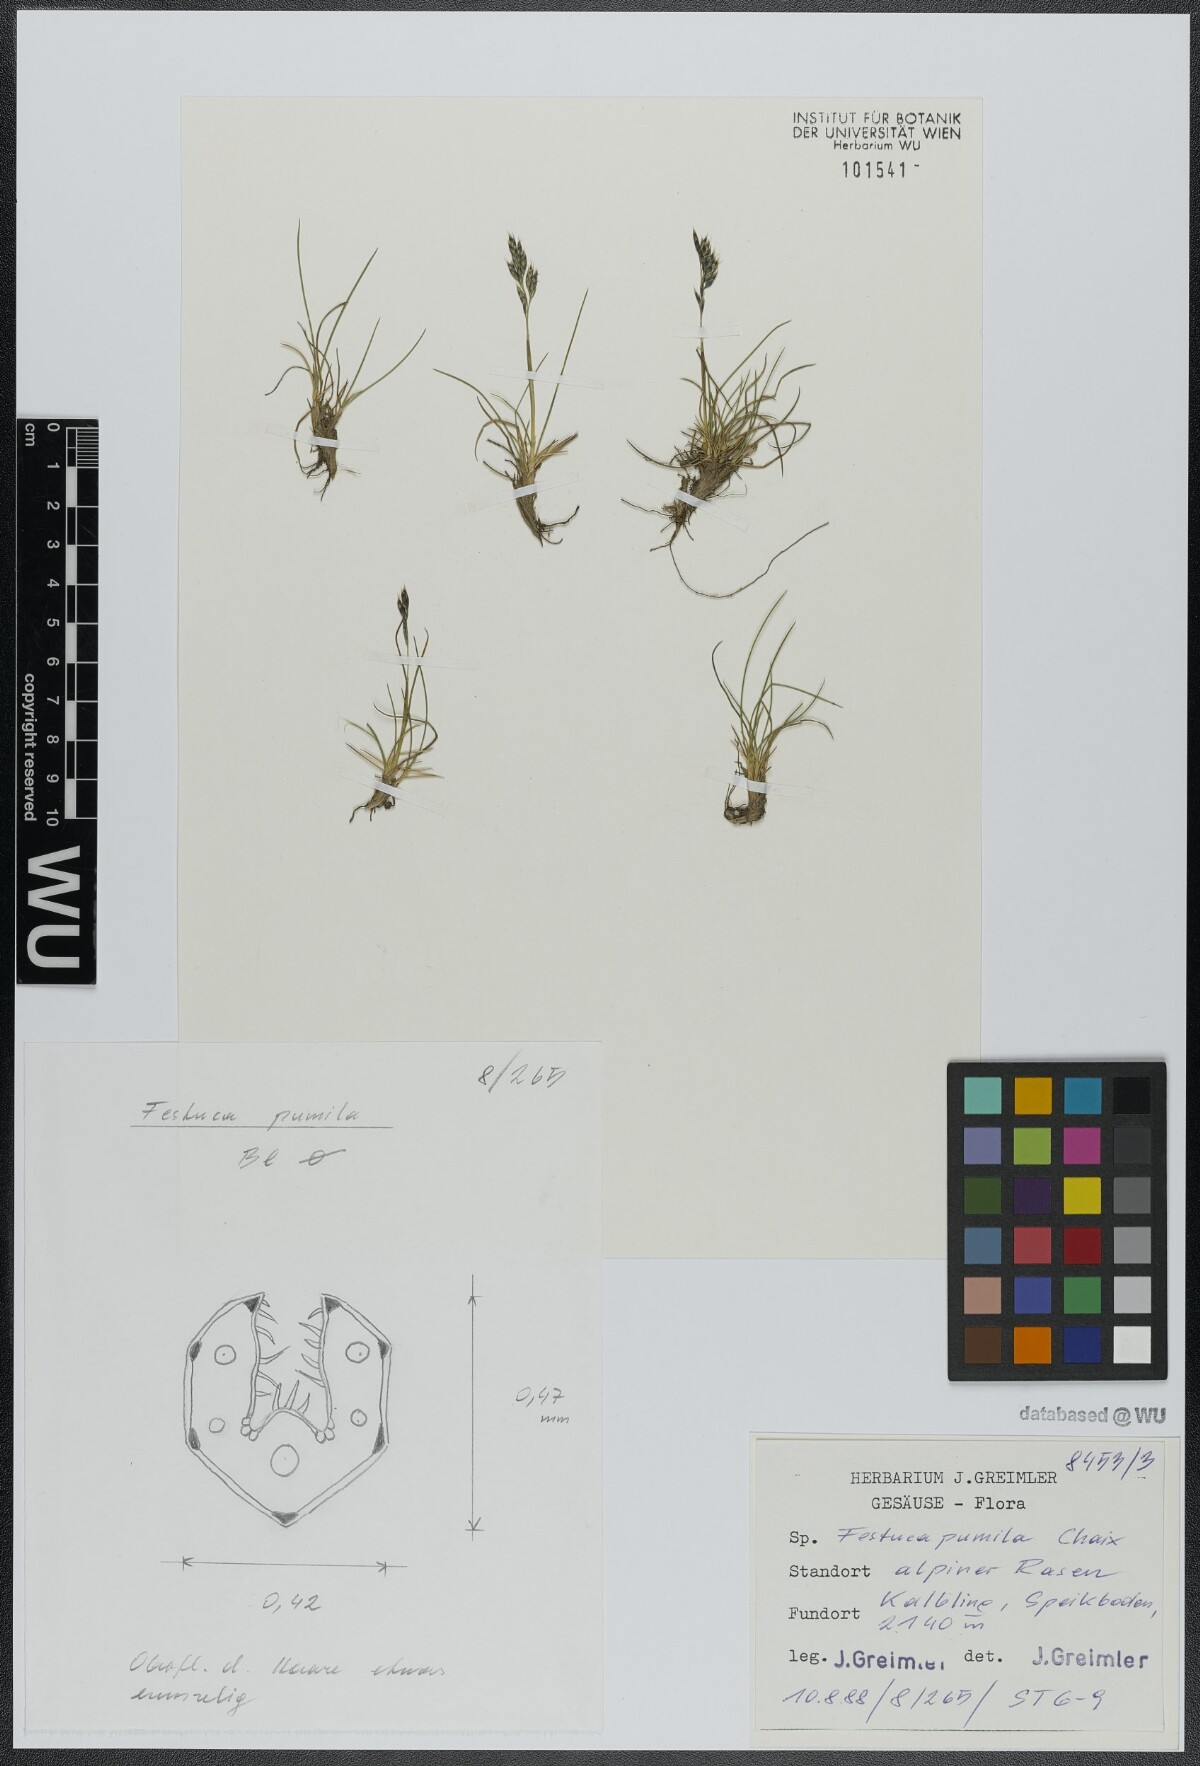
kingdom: Plantae
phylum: Tracheophyta
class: Liliopsida
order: Poales
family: Poaceae
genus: Festuca
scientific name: Festuca quadriflora
